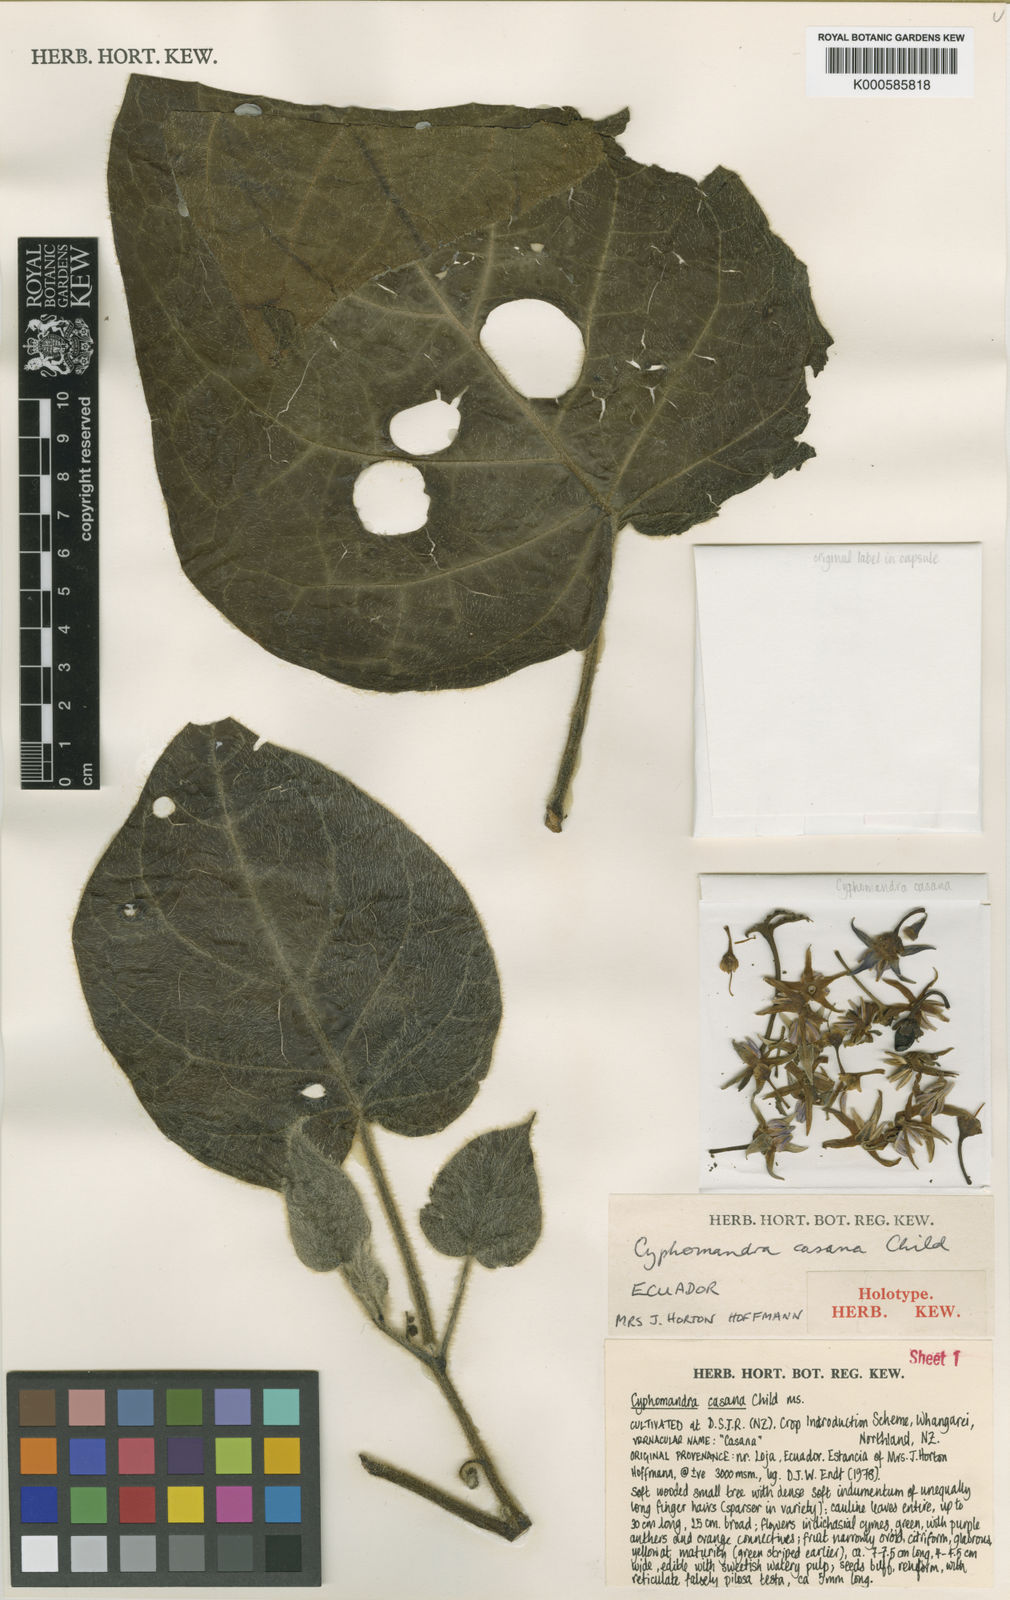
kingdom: Plantae
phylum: Tracheophyta
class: Magnoliopsida
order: Solanales
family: Solanaceae
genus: Solanum
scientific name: Solanum cajanumense
